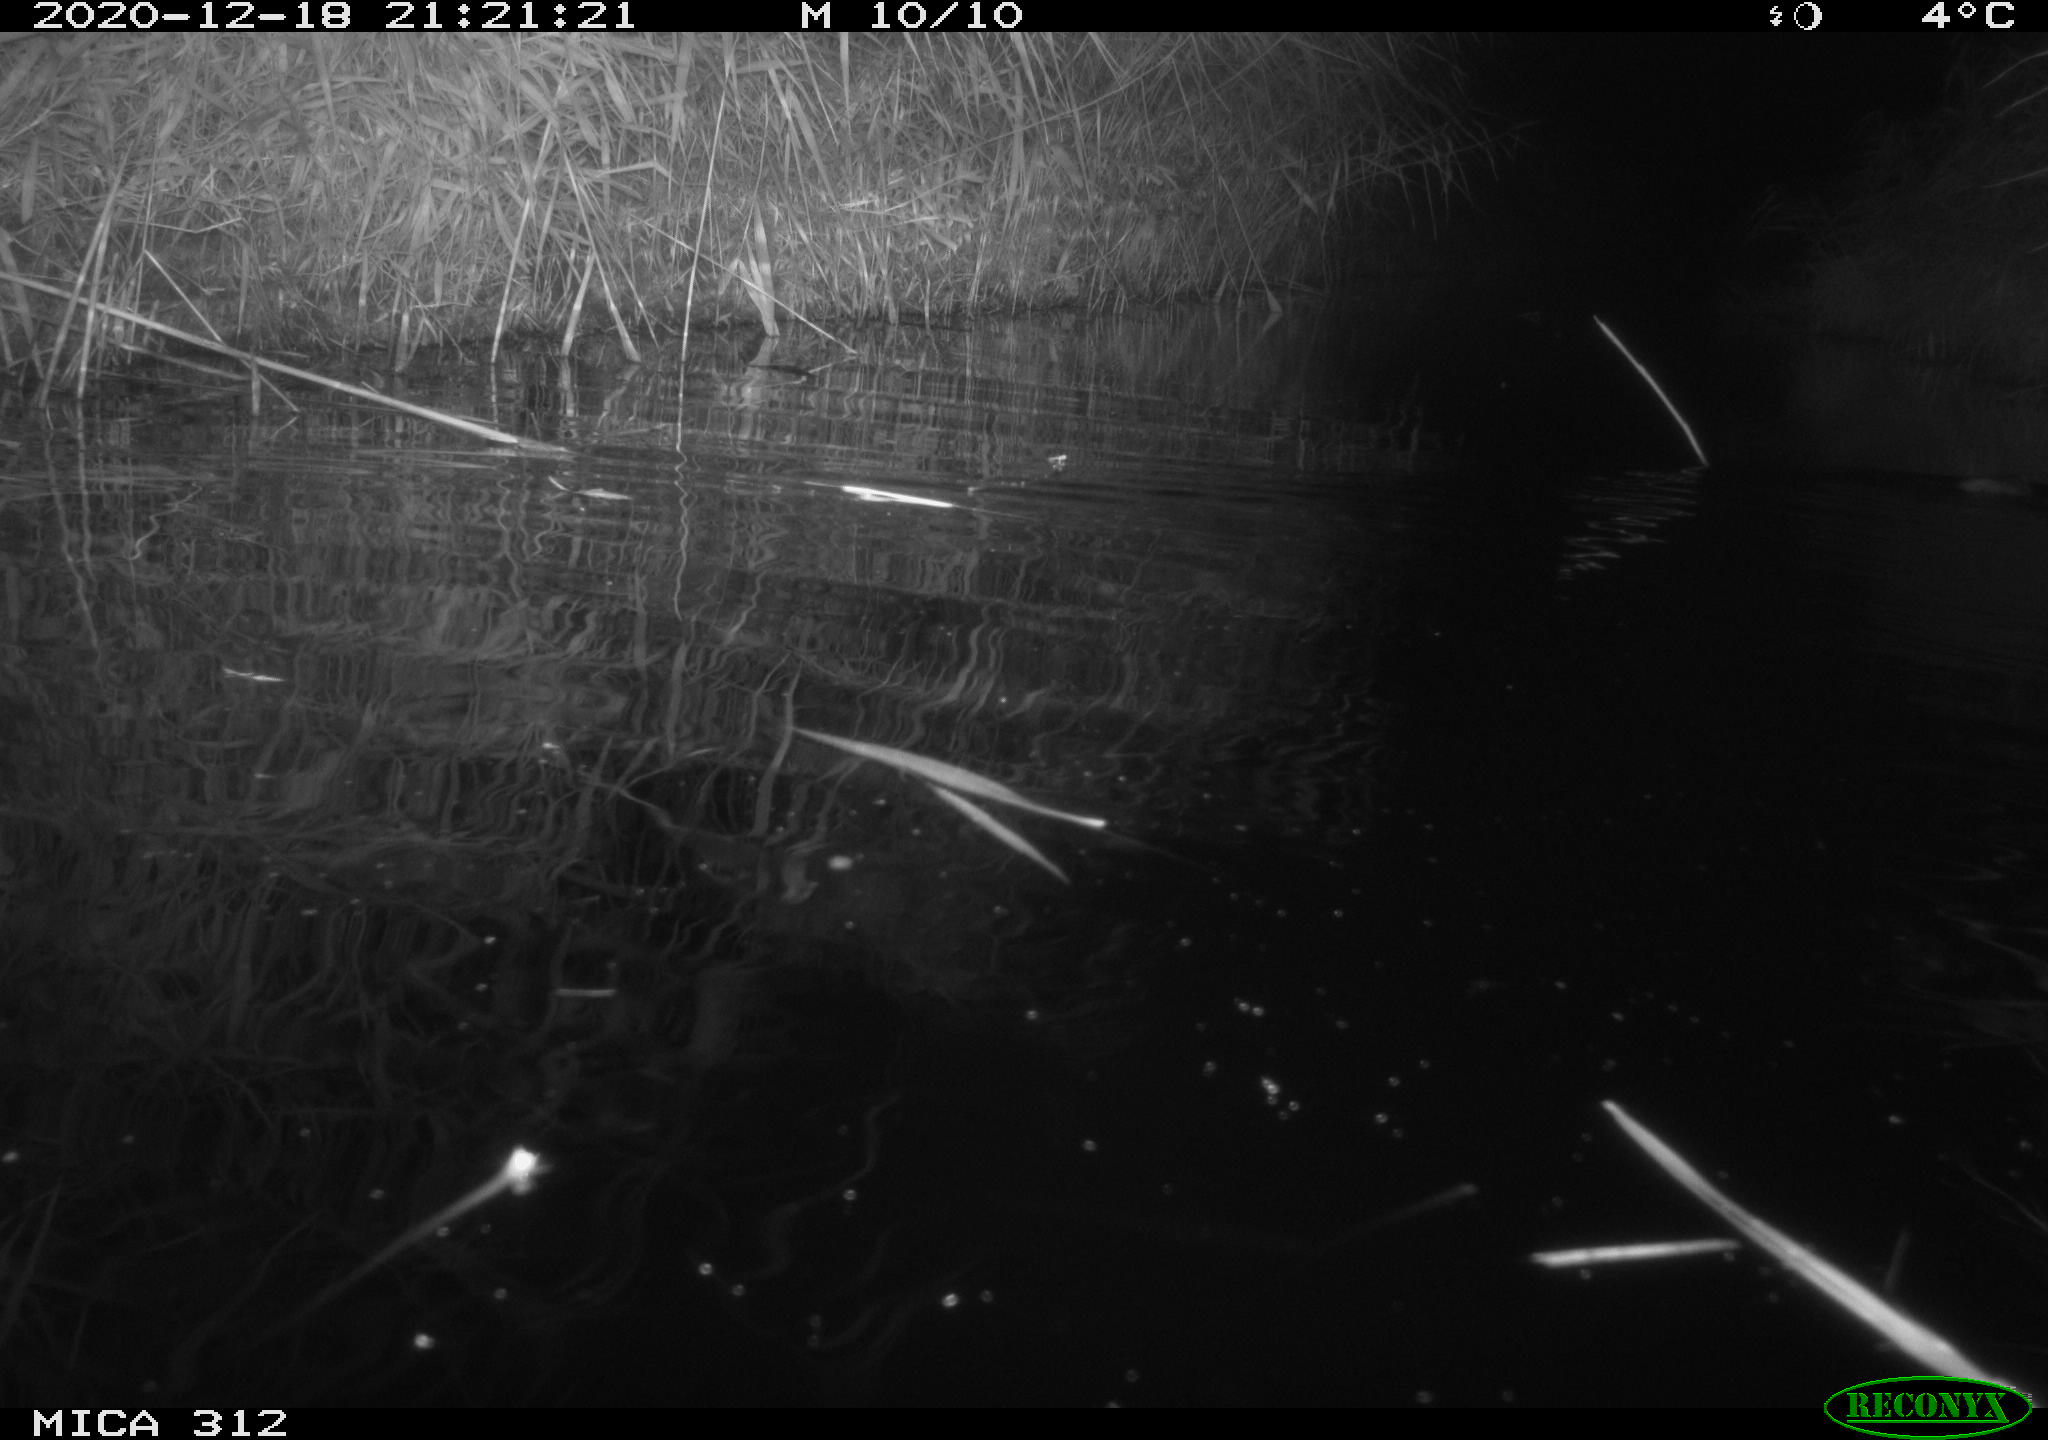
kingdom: Animalia
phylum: Chordata
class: Mammalia
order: Rodentia
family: Muridae
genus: Rattus
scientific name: Rattus norvegicus
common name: Brown rat
